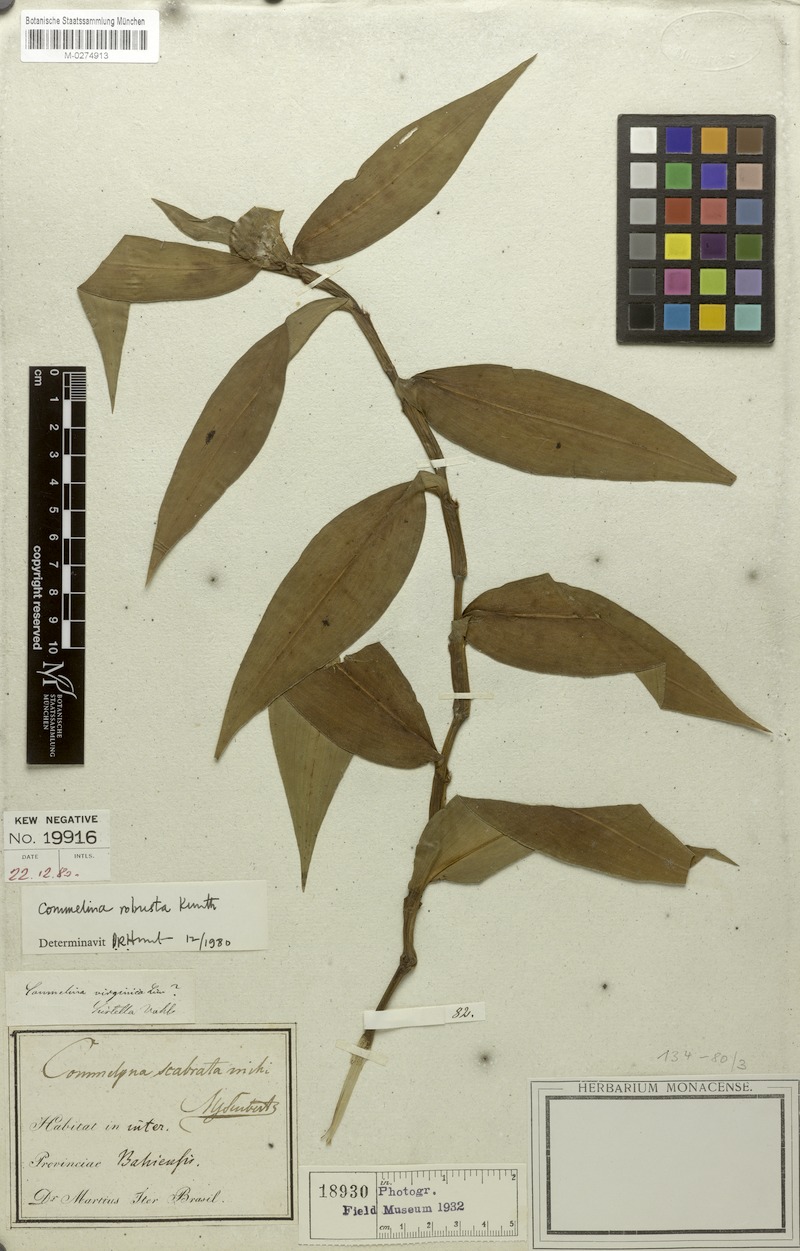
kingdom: Plantae
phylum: Tracheophyta
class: Liliopsida
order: Commelinales
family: Commelinaceae
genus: Commelina
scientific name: Commelina obliqua
